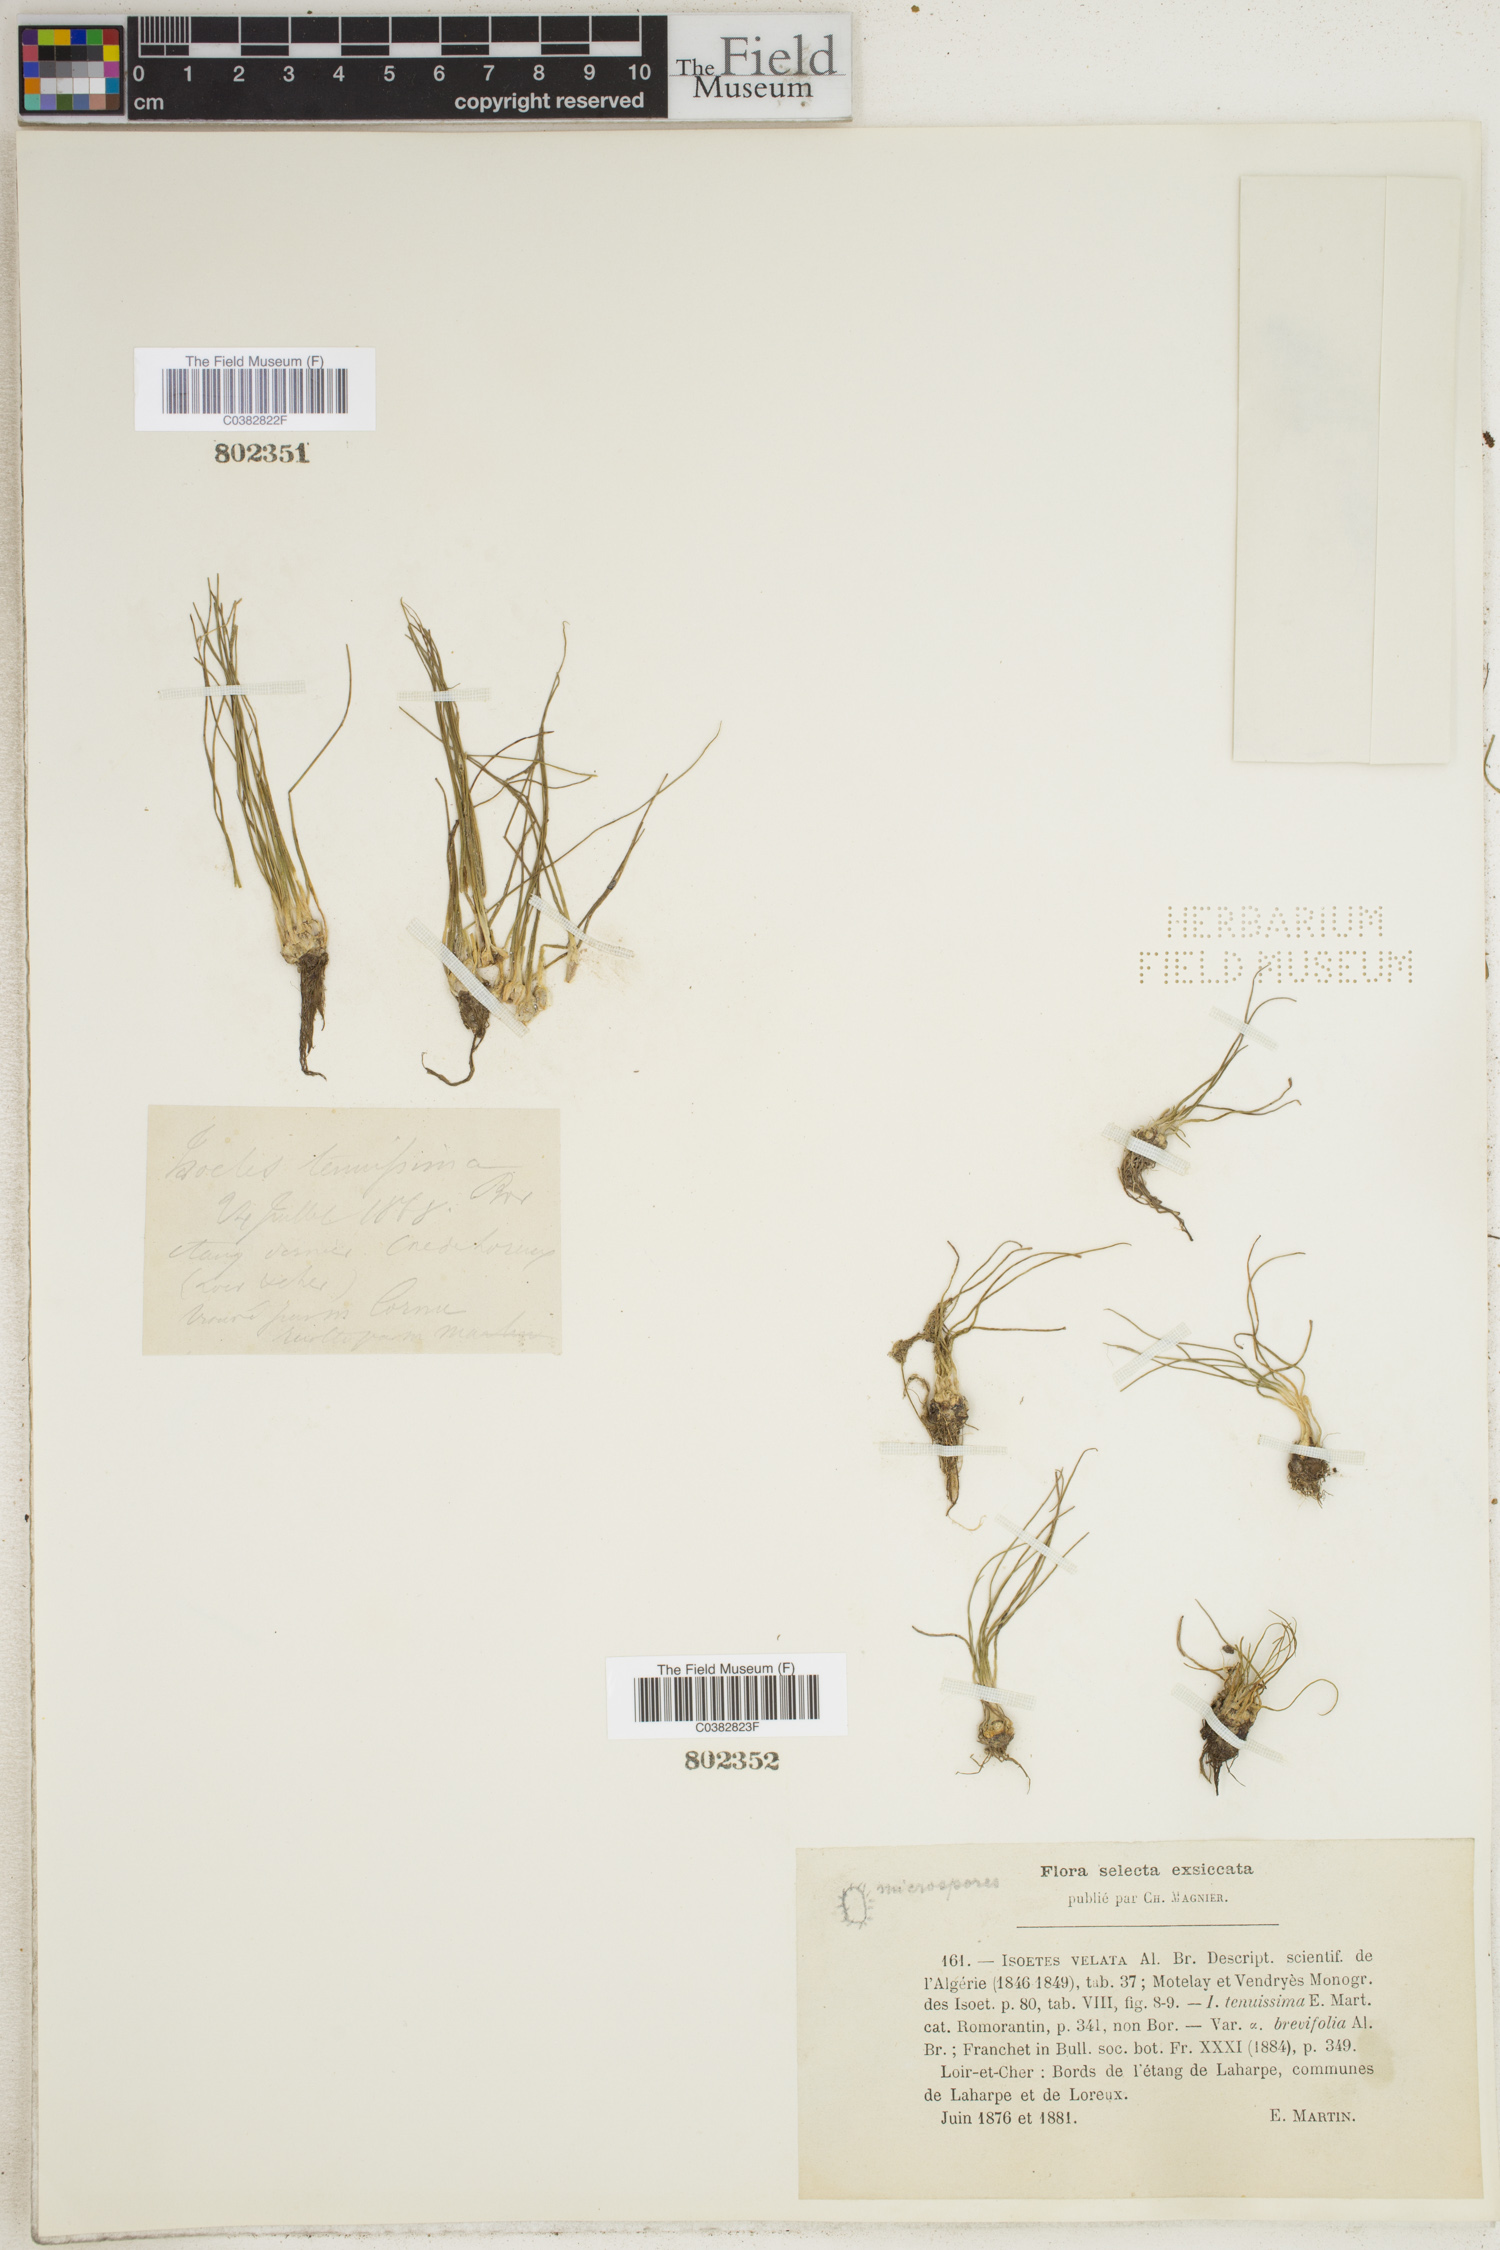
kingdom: Plantae
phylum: Tracheophyta
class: Lycopodiopsida
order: Isoetales
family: Isoetaceae
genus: Isoetes
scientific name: Isoetes
